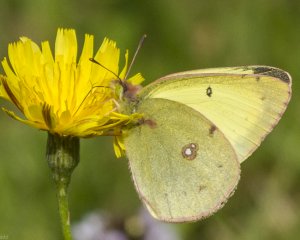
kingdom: Animalia
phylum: Arthropoda
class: Insecta
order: Lepidoptera
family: Pieridae
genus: Colias
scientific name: Colias philodice
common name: Clouded Sulphur
